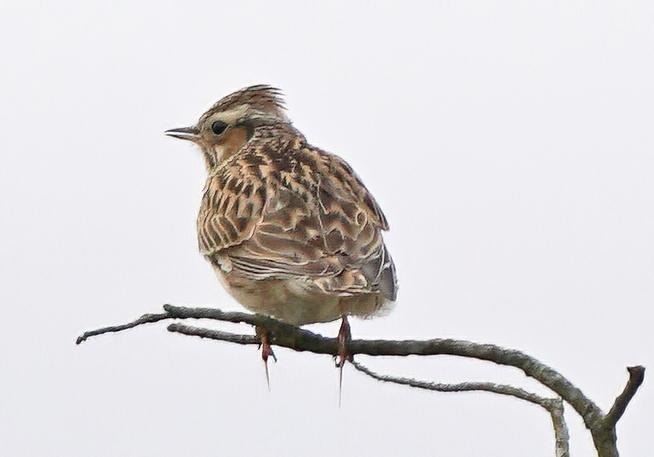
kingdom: Animalia
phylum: Chordata
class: Aves
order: Passeriformes
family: Alaudidae
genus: Lullula
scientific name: Lullula arborea
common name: Hedelærke
